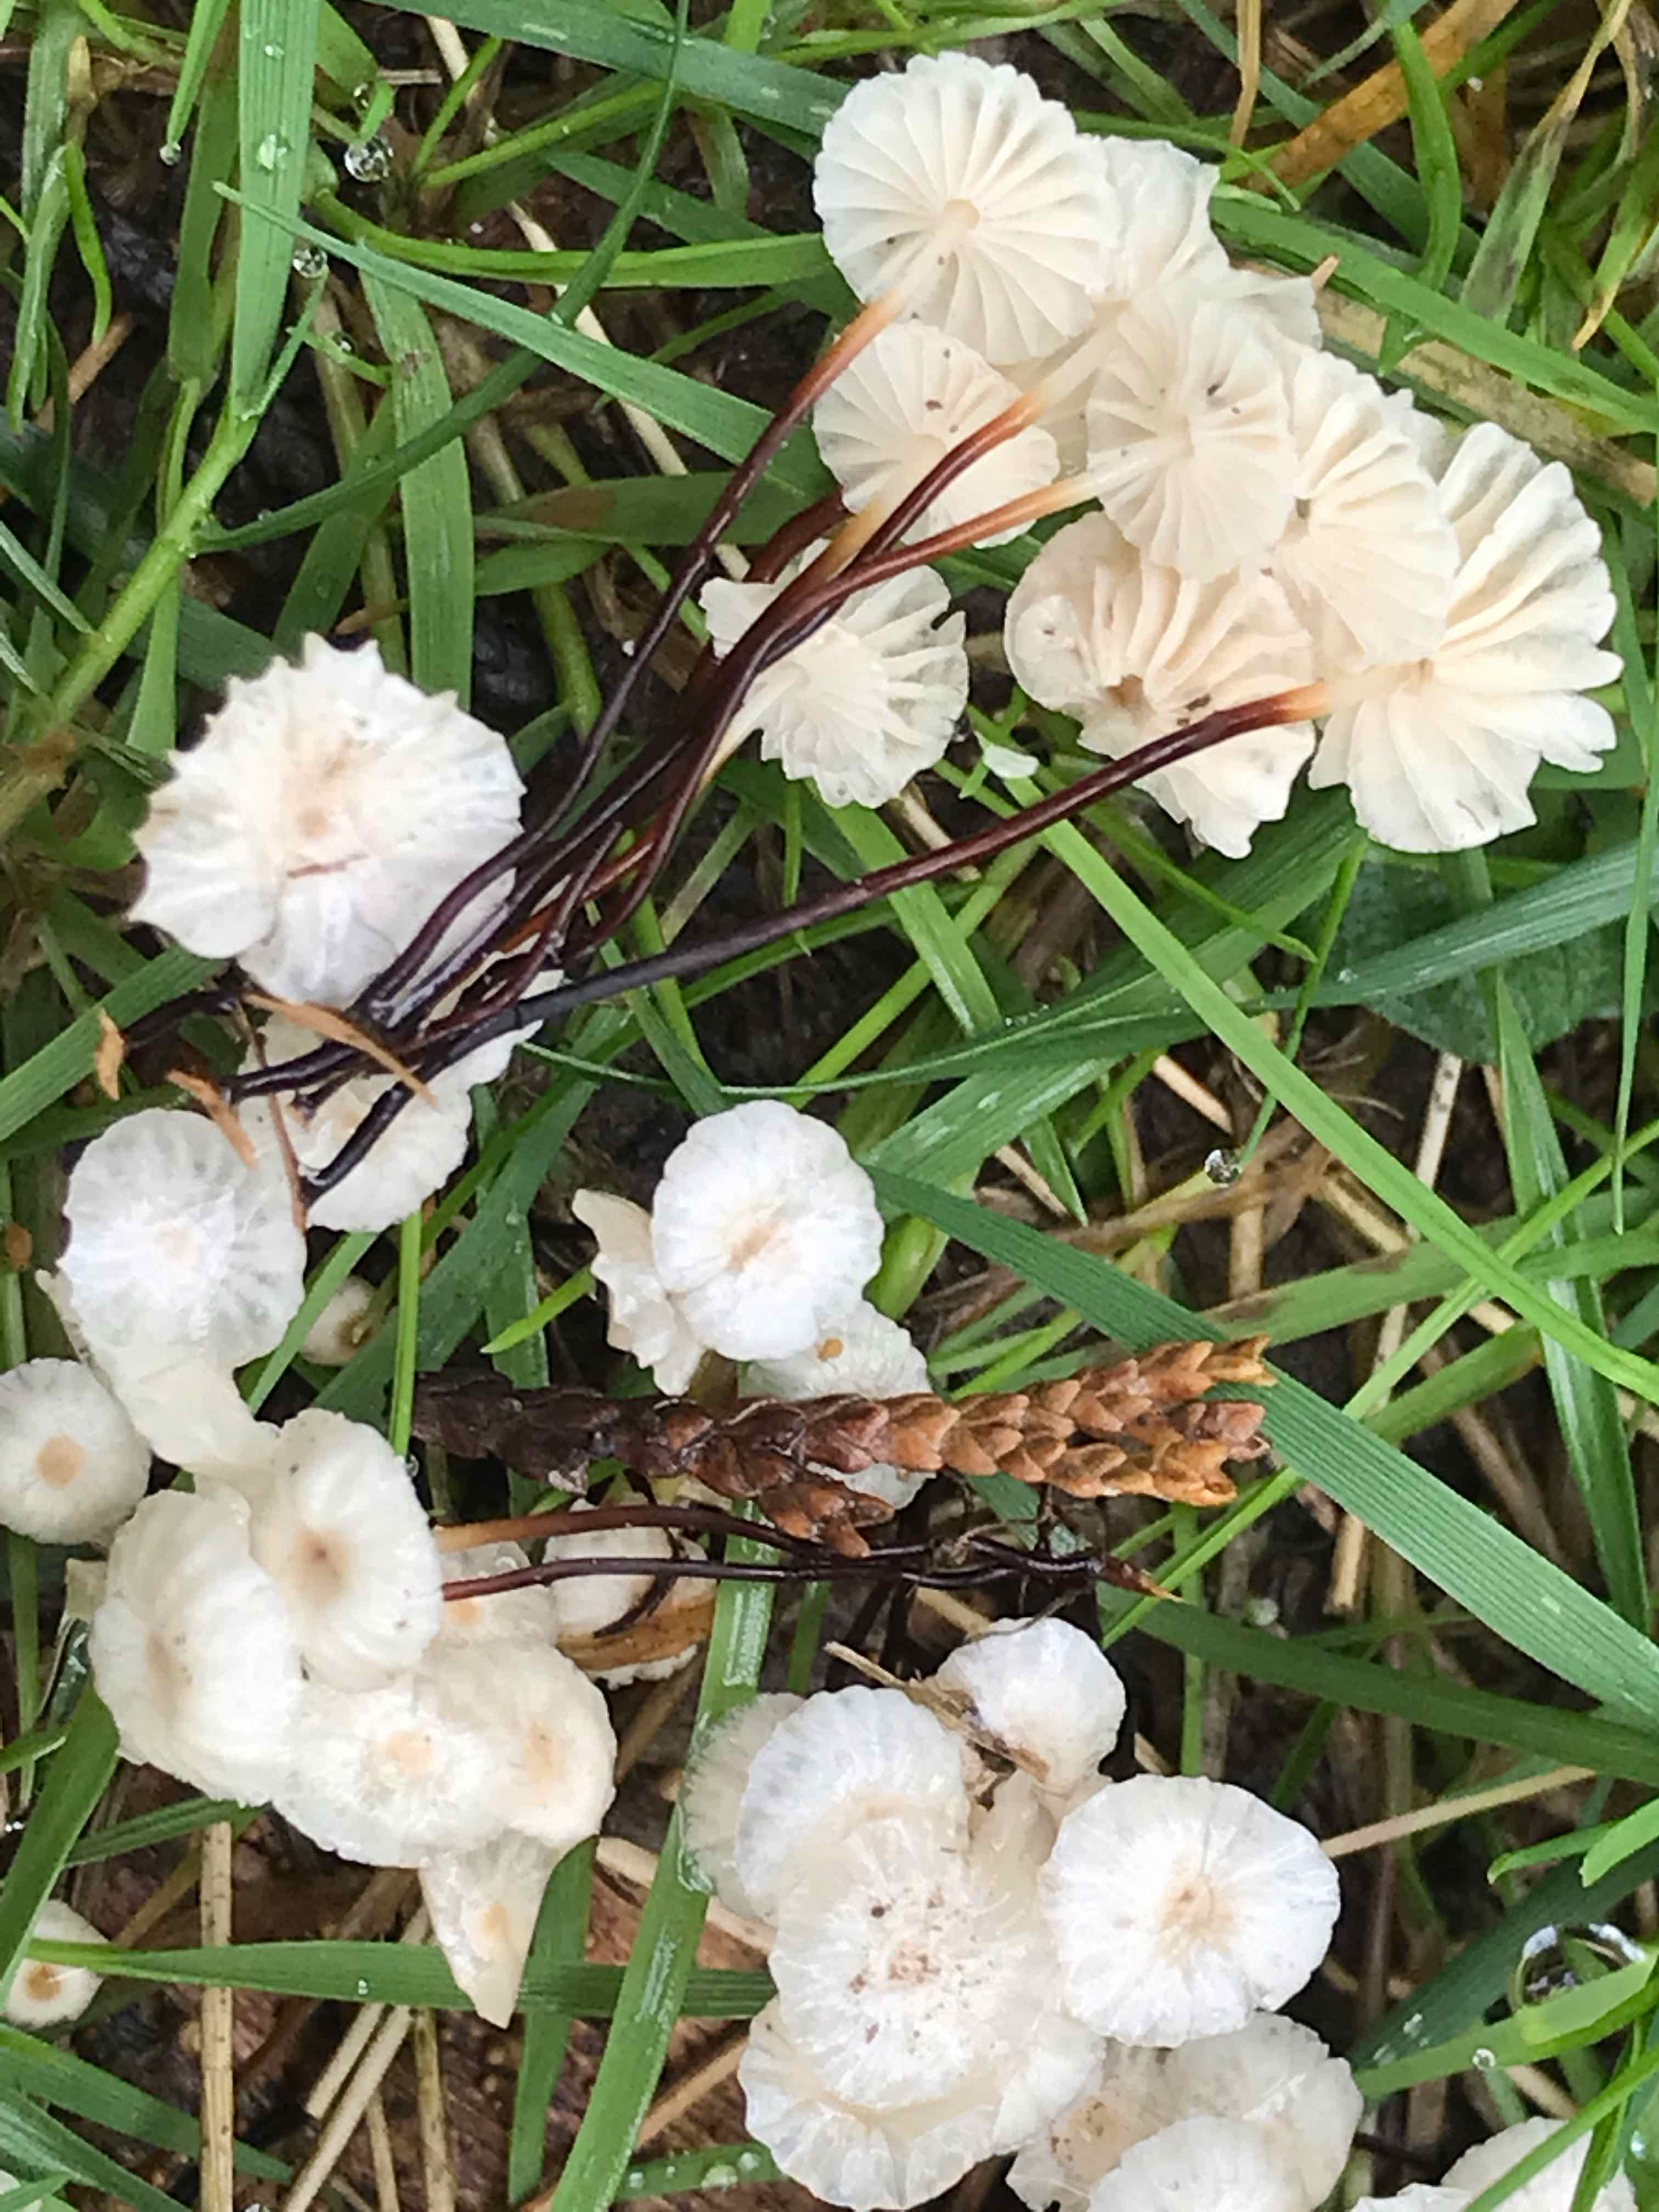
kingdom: Fungi
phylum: Basidiomycota
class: Agaricomycetes
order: Agaricales
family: Marasmiaceae
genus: Marasmius
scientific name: Marasmius rotula
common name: hjul-bruskhat
